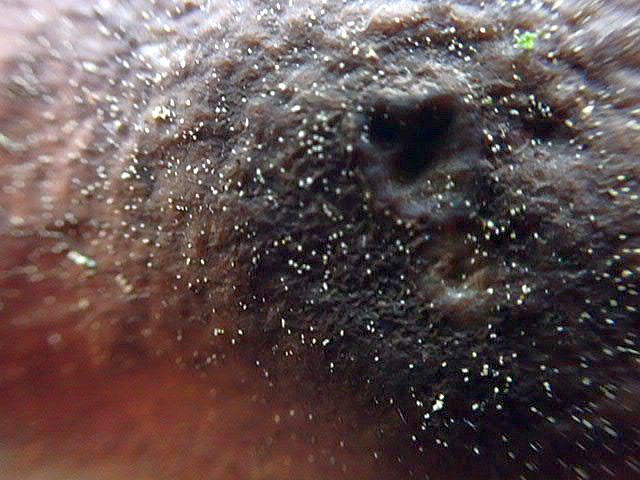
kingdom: Fungi
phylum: Basidiomycota
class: Agaricomycetes
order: Agaricales
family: Pluteaceae
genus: Pluteus
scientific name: Pluteus
